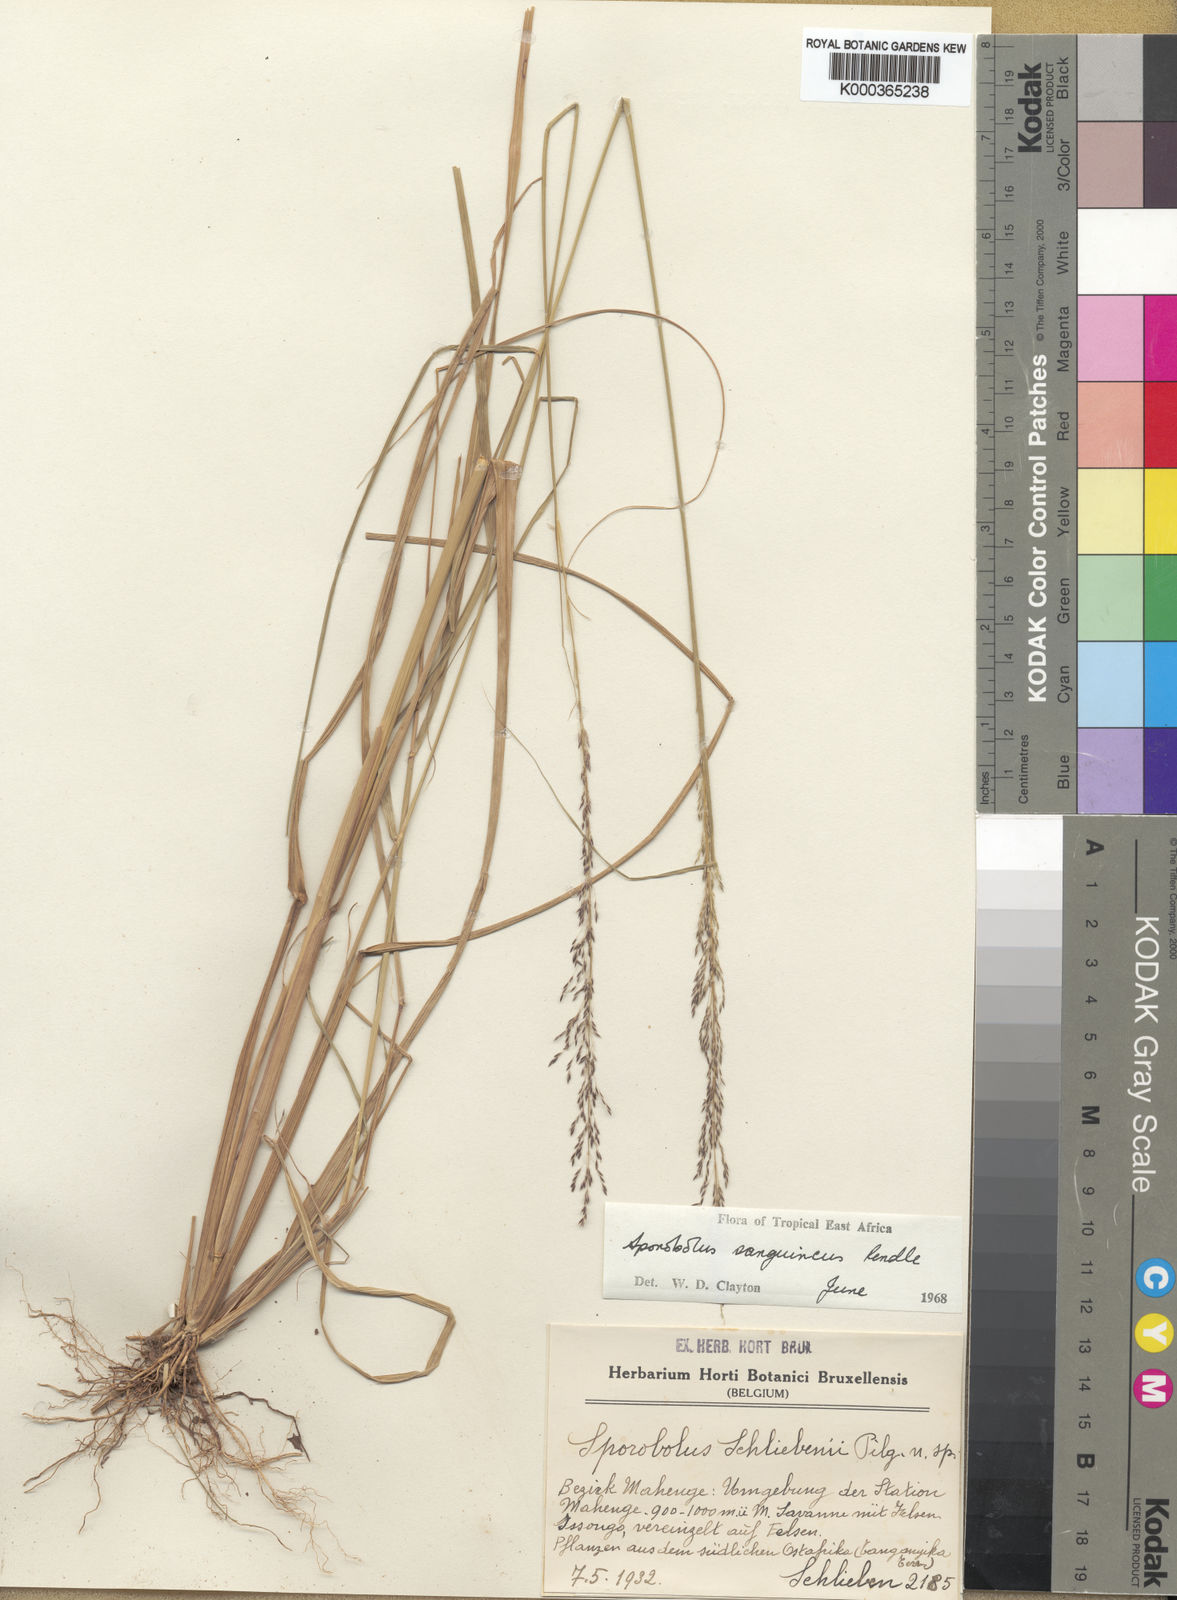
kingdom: Plantae
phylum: Tracheophyta
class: Liliopsida
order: Poales
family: Poaceae
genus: Sporobolus
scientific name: Sporobolus sanguineus
